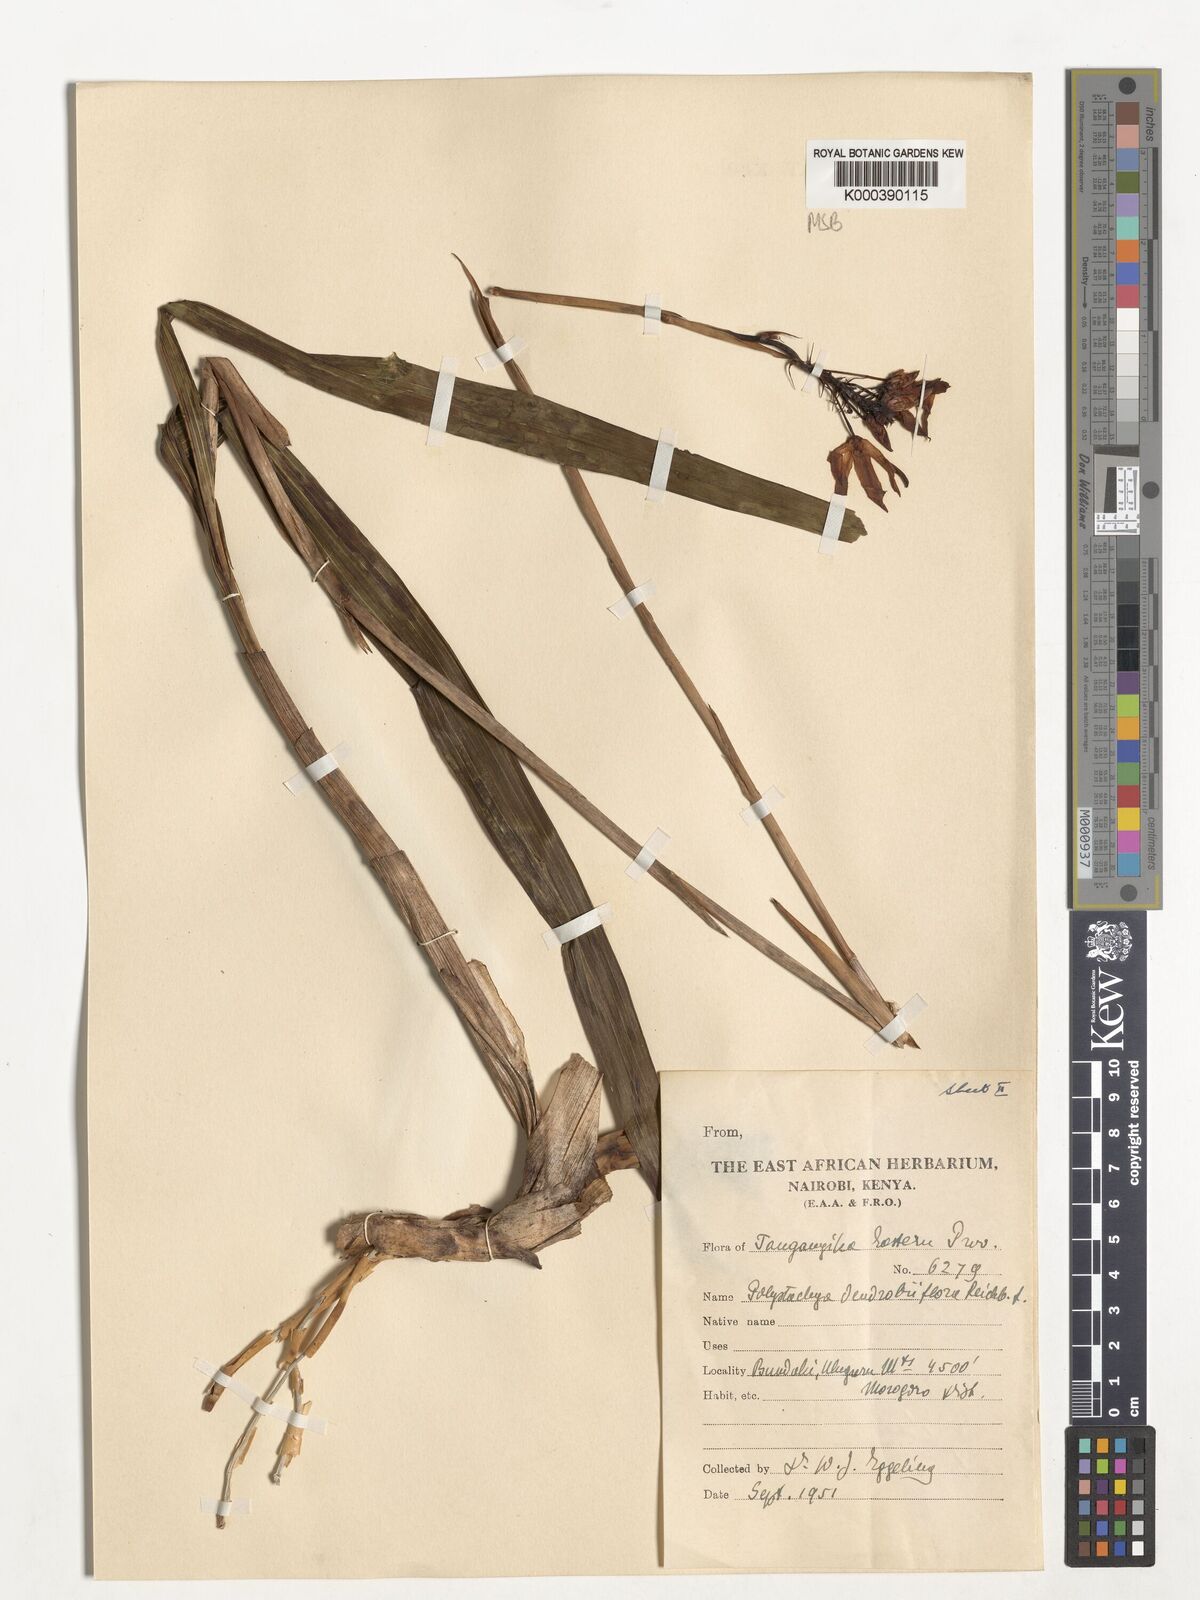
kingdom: Plantae
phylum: Tracheophyta
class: Liliopsida
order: Asparagales
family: Orchidaceae
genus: Polystachya
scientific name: Polystachya longiscapa
